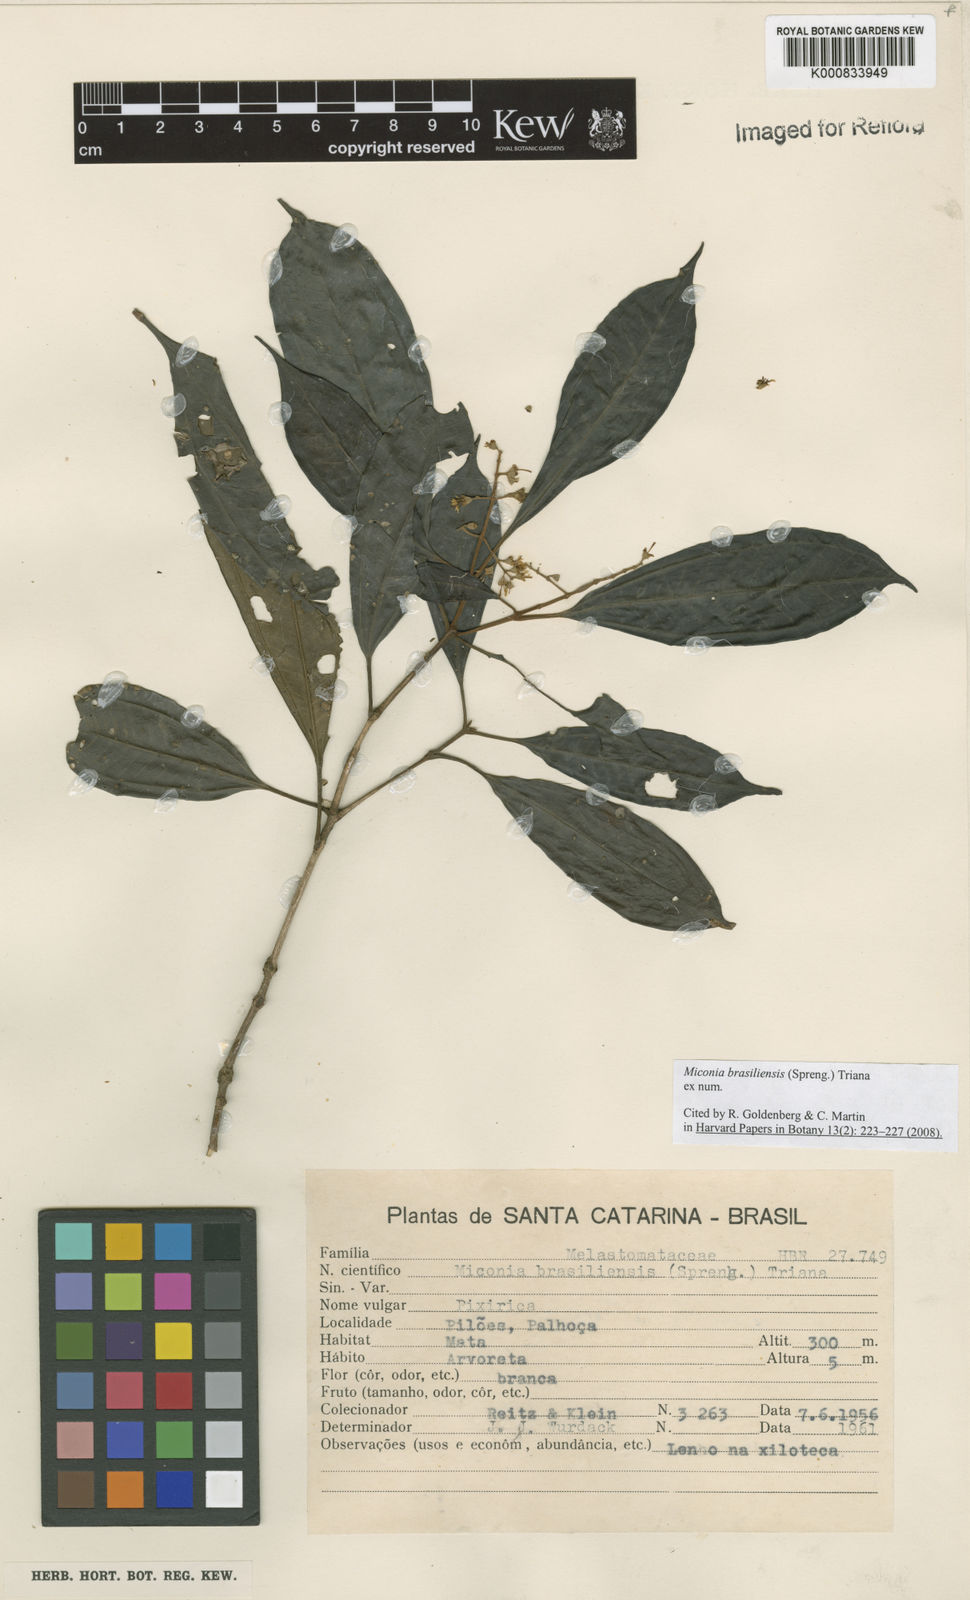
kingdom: Plantae
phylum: Tracheophyta
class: Magnoliopsida
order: Myrtales
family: Melastomataceae
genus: Miconia
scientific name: Miconia brasiliensis
